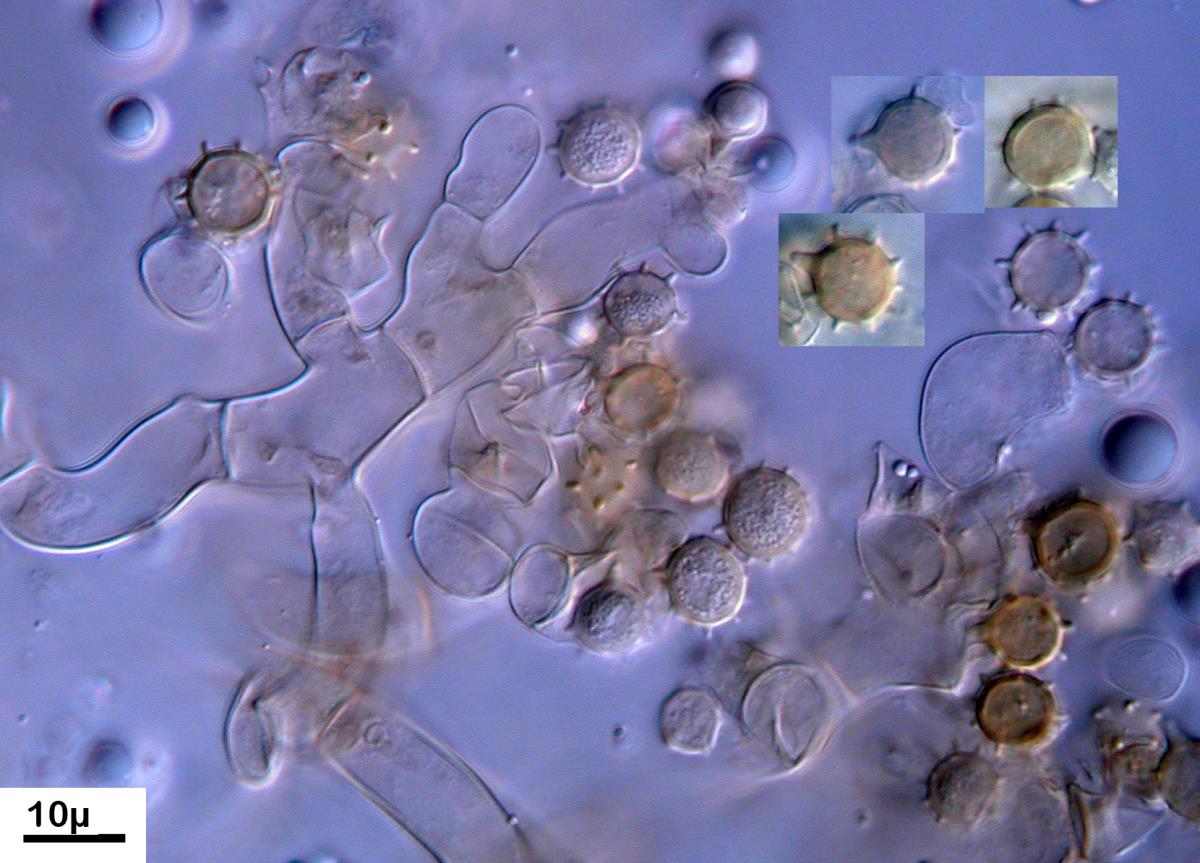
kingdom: Fungi
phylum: Basidiomycota
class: Agaricomycetes
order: Cantharellales
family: Botryobasidiaceae
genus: Botryobasidium
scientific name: Botryobasidium isabellinum
